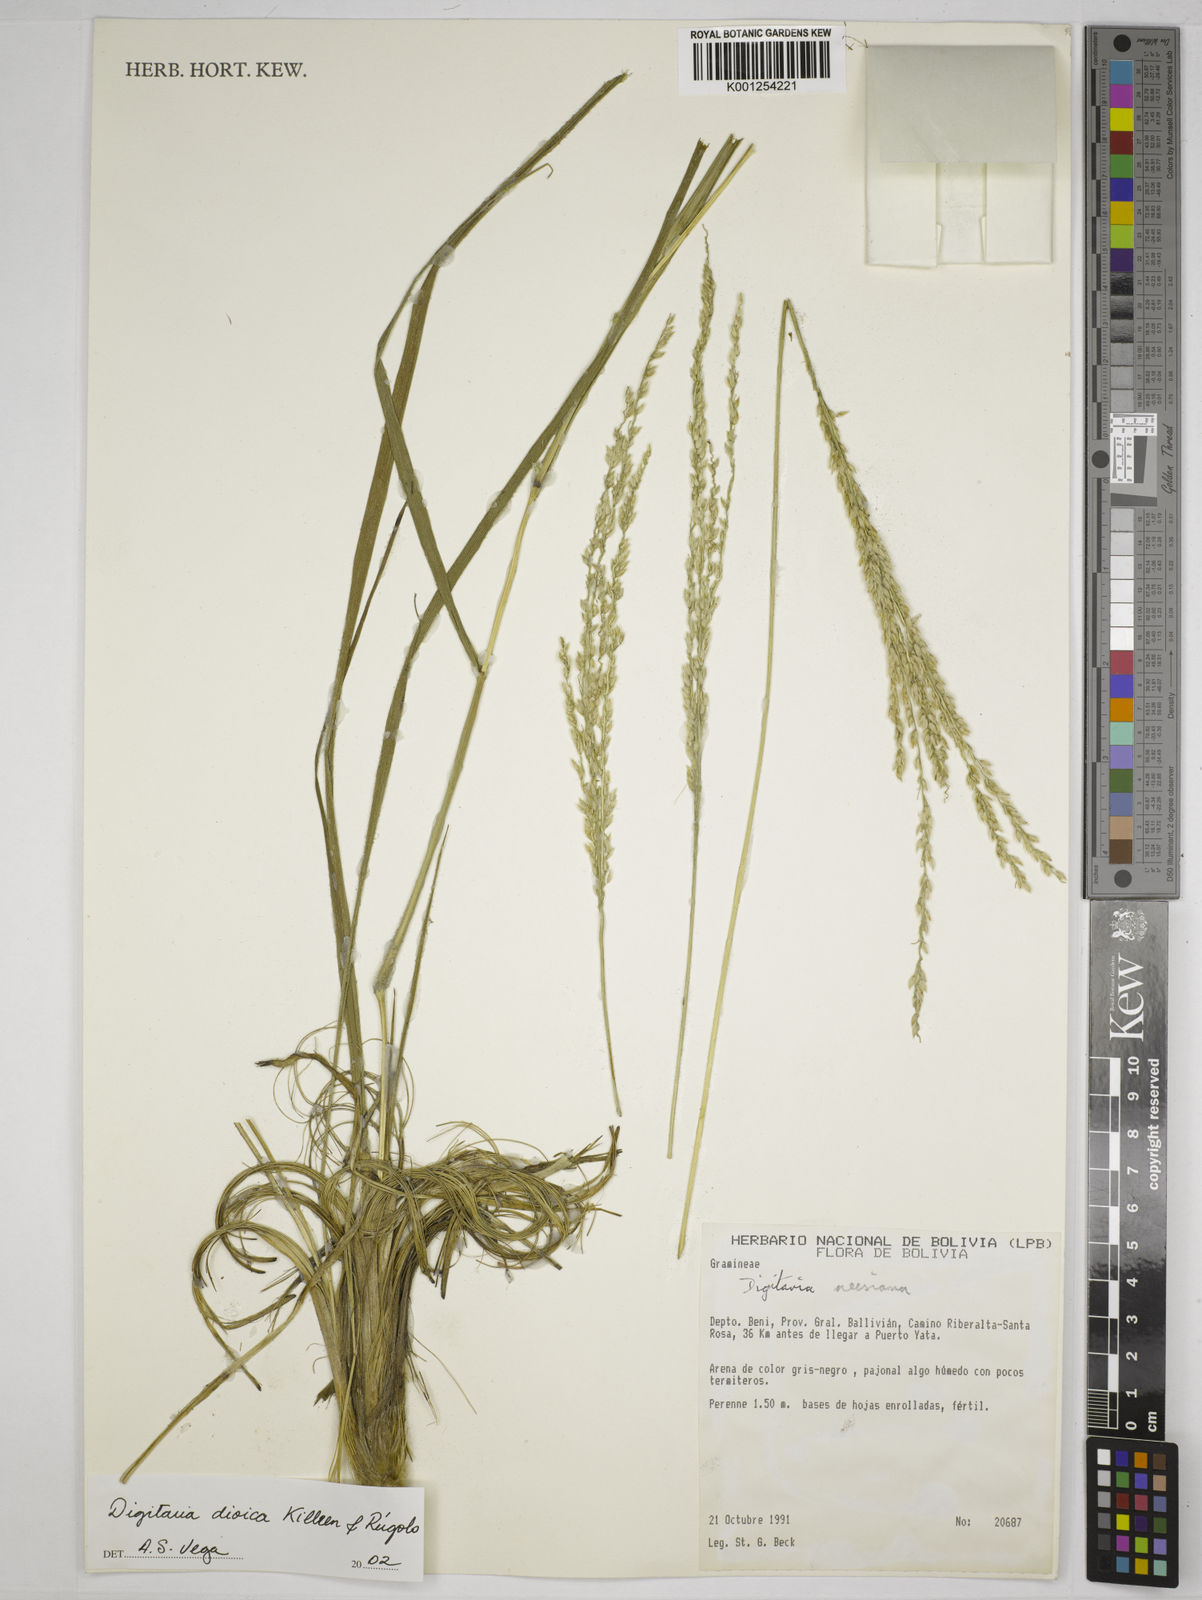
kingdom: Plantae
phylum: Tracheophyta
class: Liliopsida
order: Poales
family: Poaceae
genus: Digitaria
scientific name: Digitaria dioica
